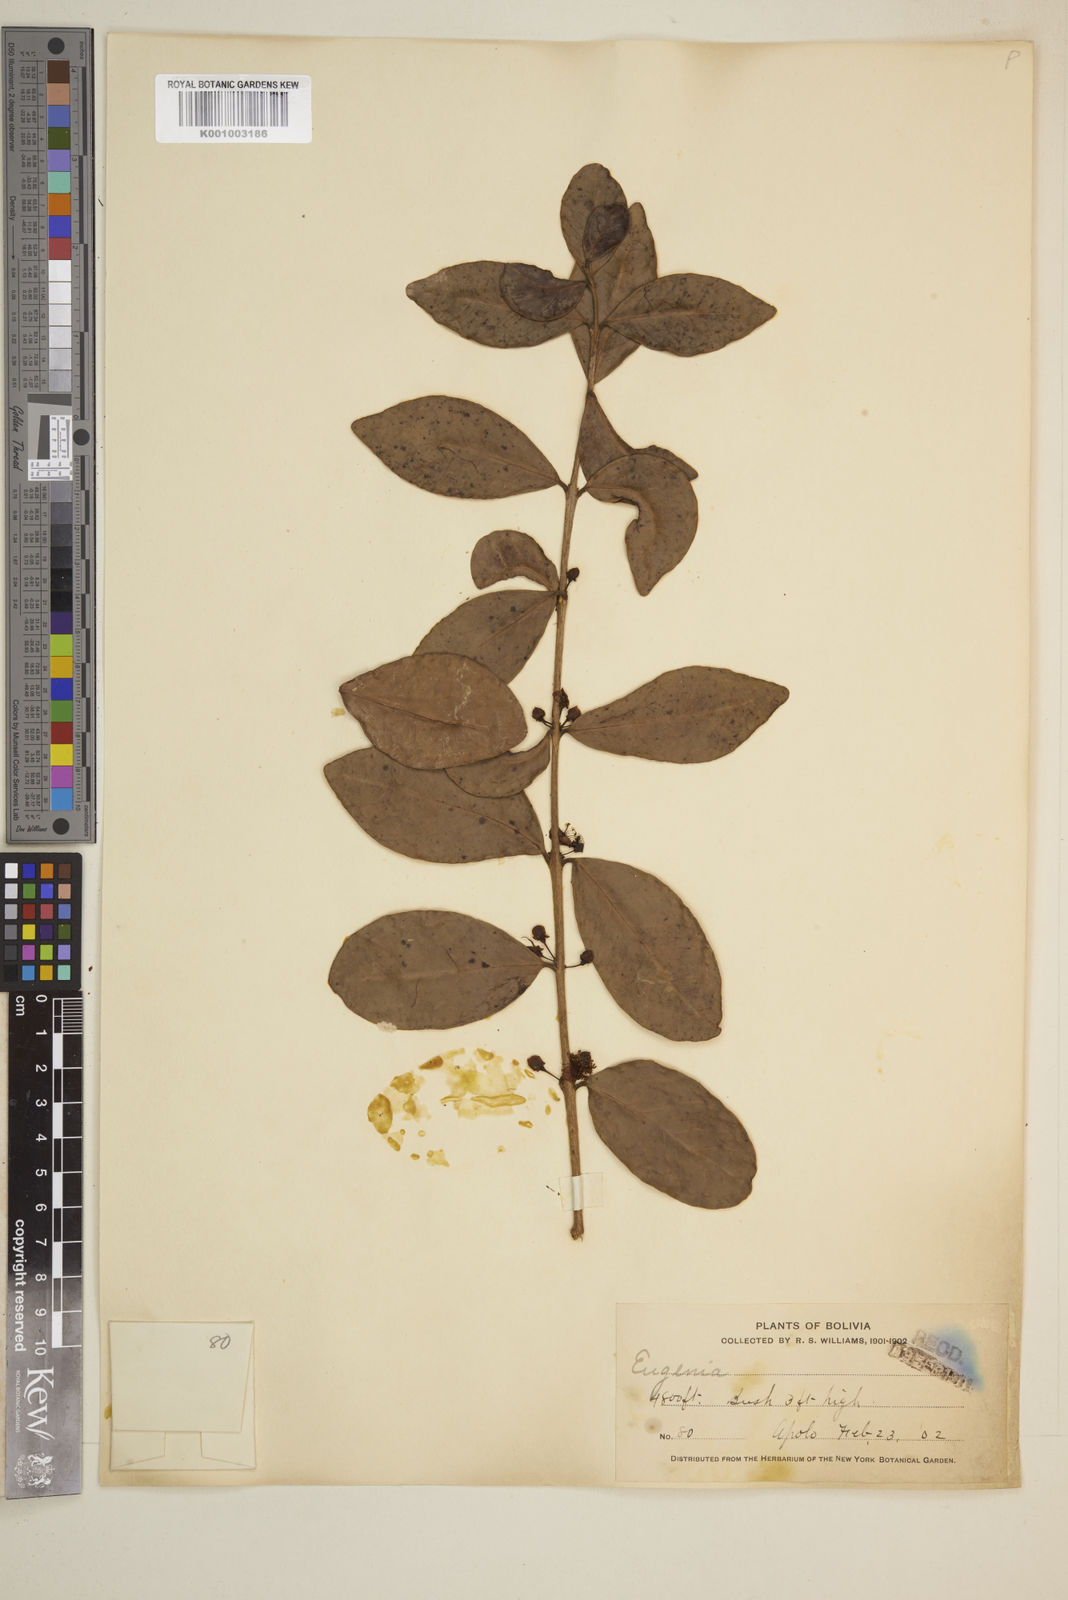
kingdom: Plantae
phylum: Tracheophyta
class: Magnoliopsida
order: Myrtales
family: Myrtaceae
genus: Eugenia
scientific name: Eugenia
